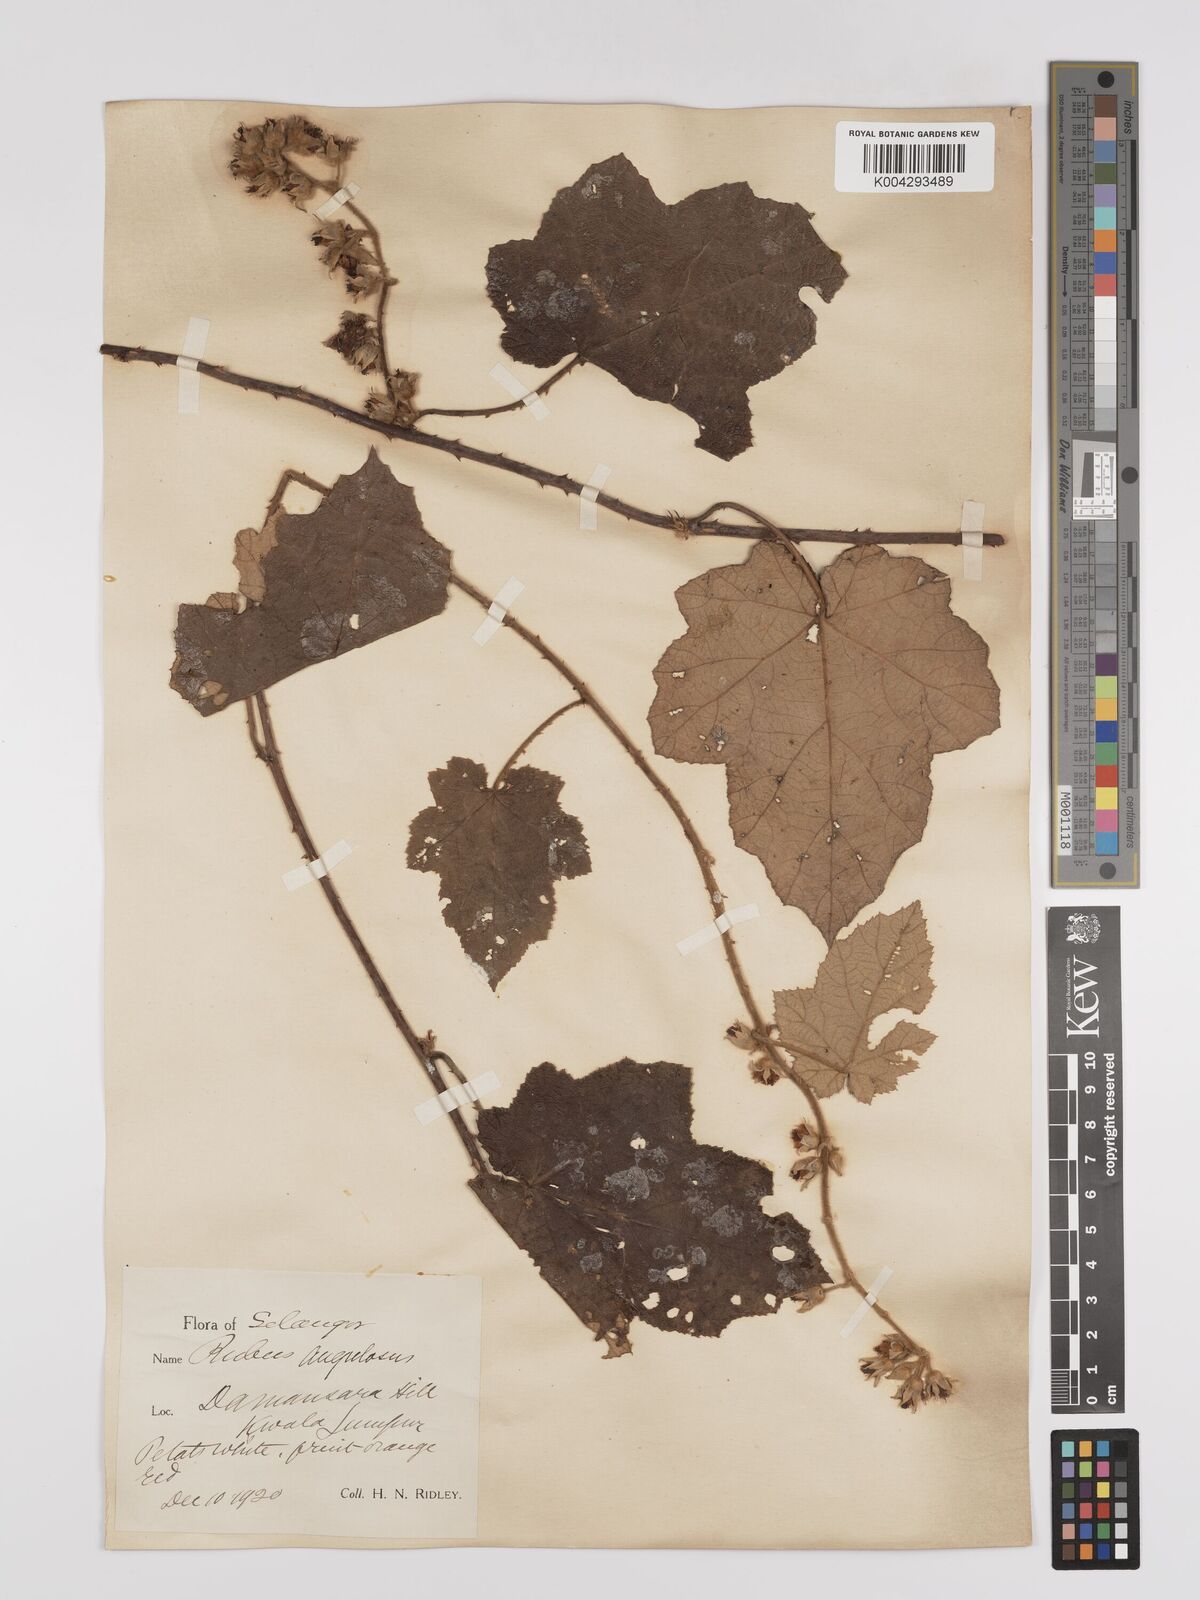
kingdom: Plantae
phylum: Tracheophyta
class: Magnoliopsida
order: Rosales
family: Rosaceae
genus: Rubus
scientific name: Rubus moluccanus
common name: Wild raspberry
